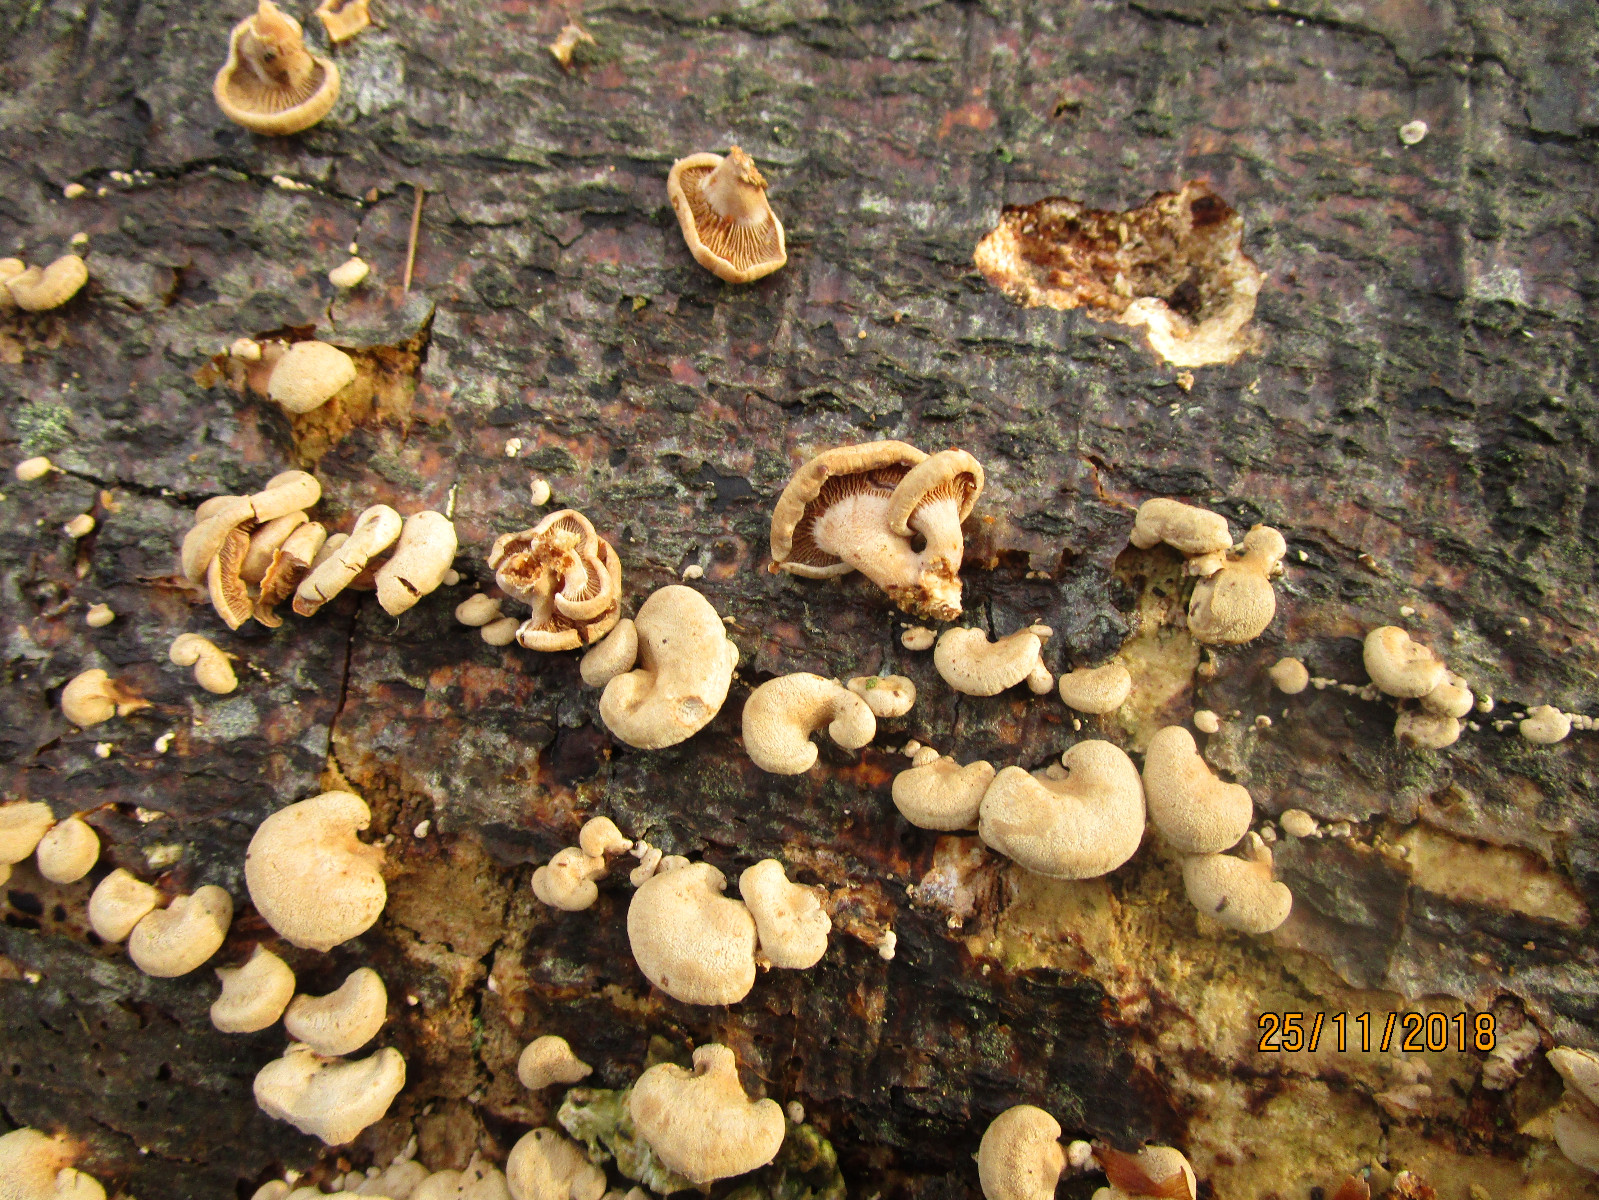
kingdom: Fungi
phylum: Basidiomycota
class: Agaricomycetes
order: Agaricales
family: Mycenaceae
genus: Panellus
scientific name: Panellus stipticus
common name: kliddet epaulethat
